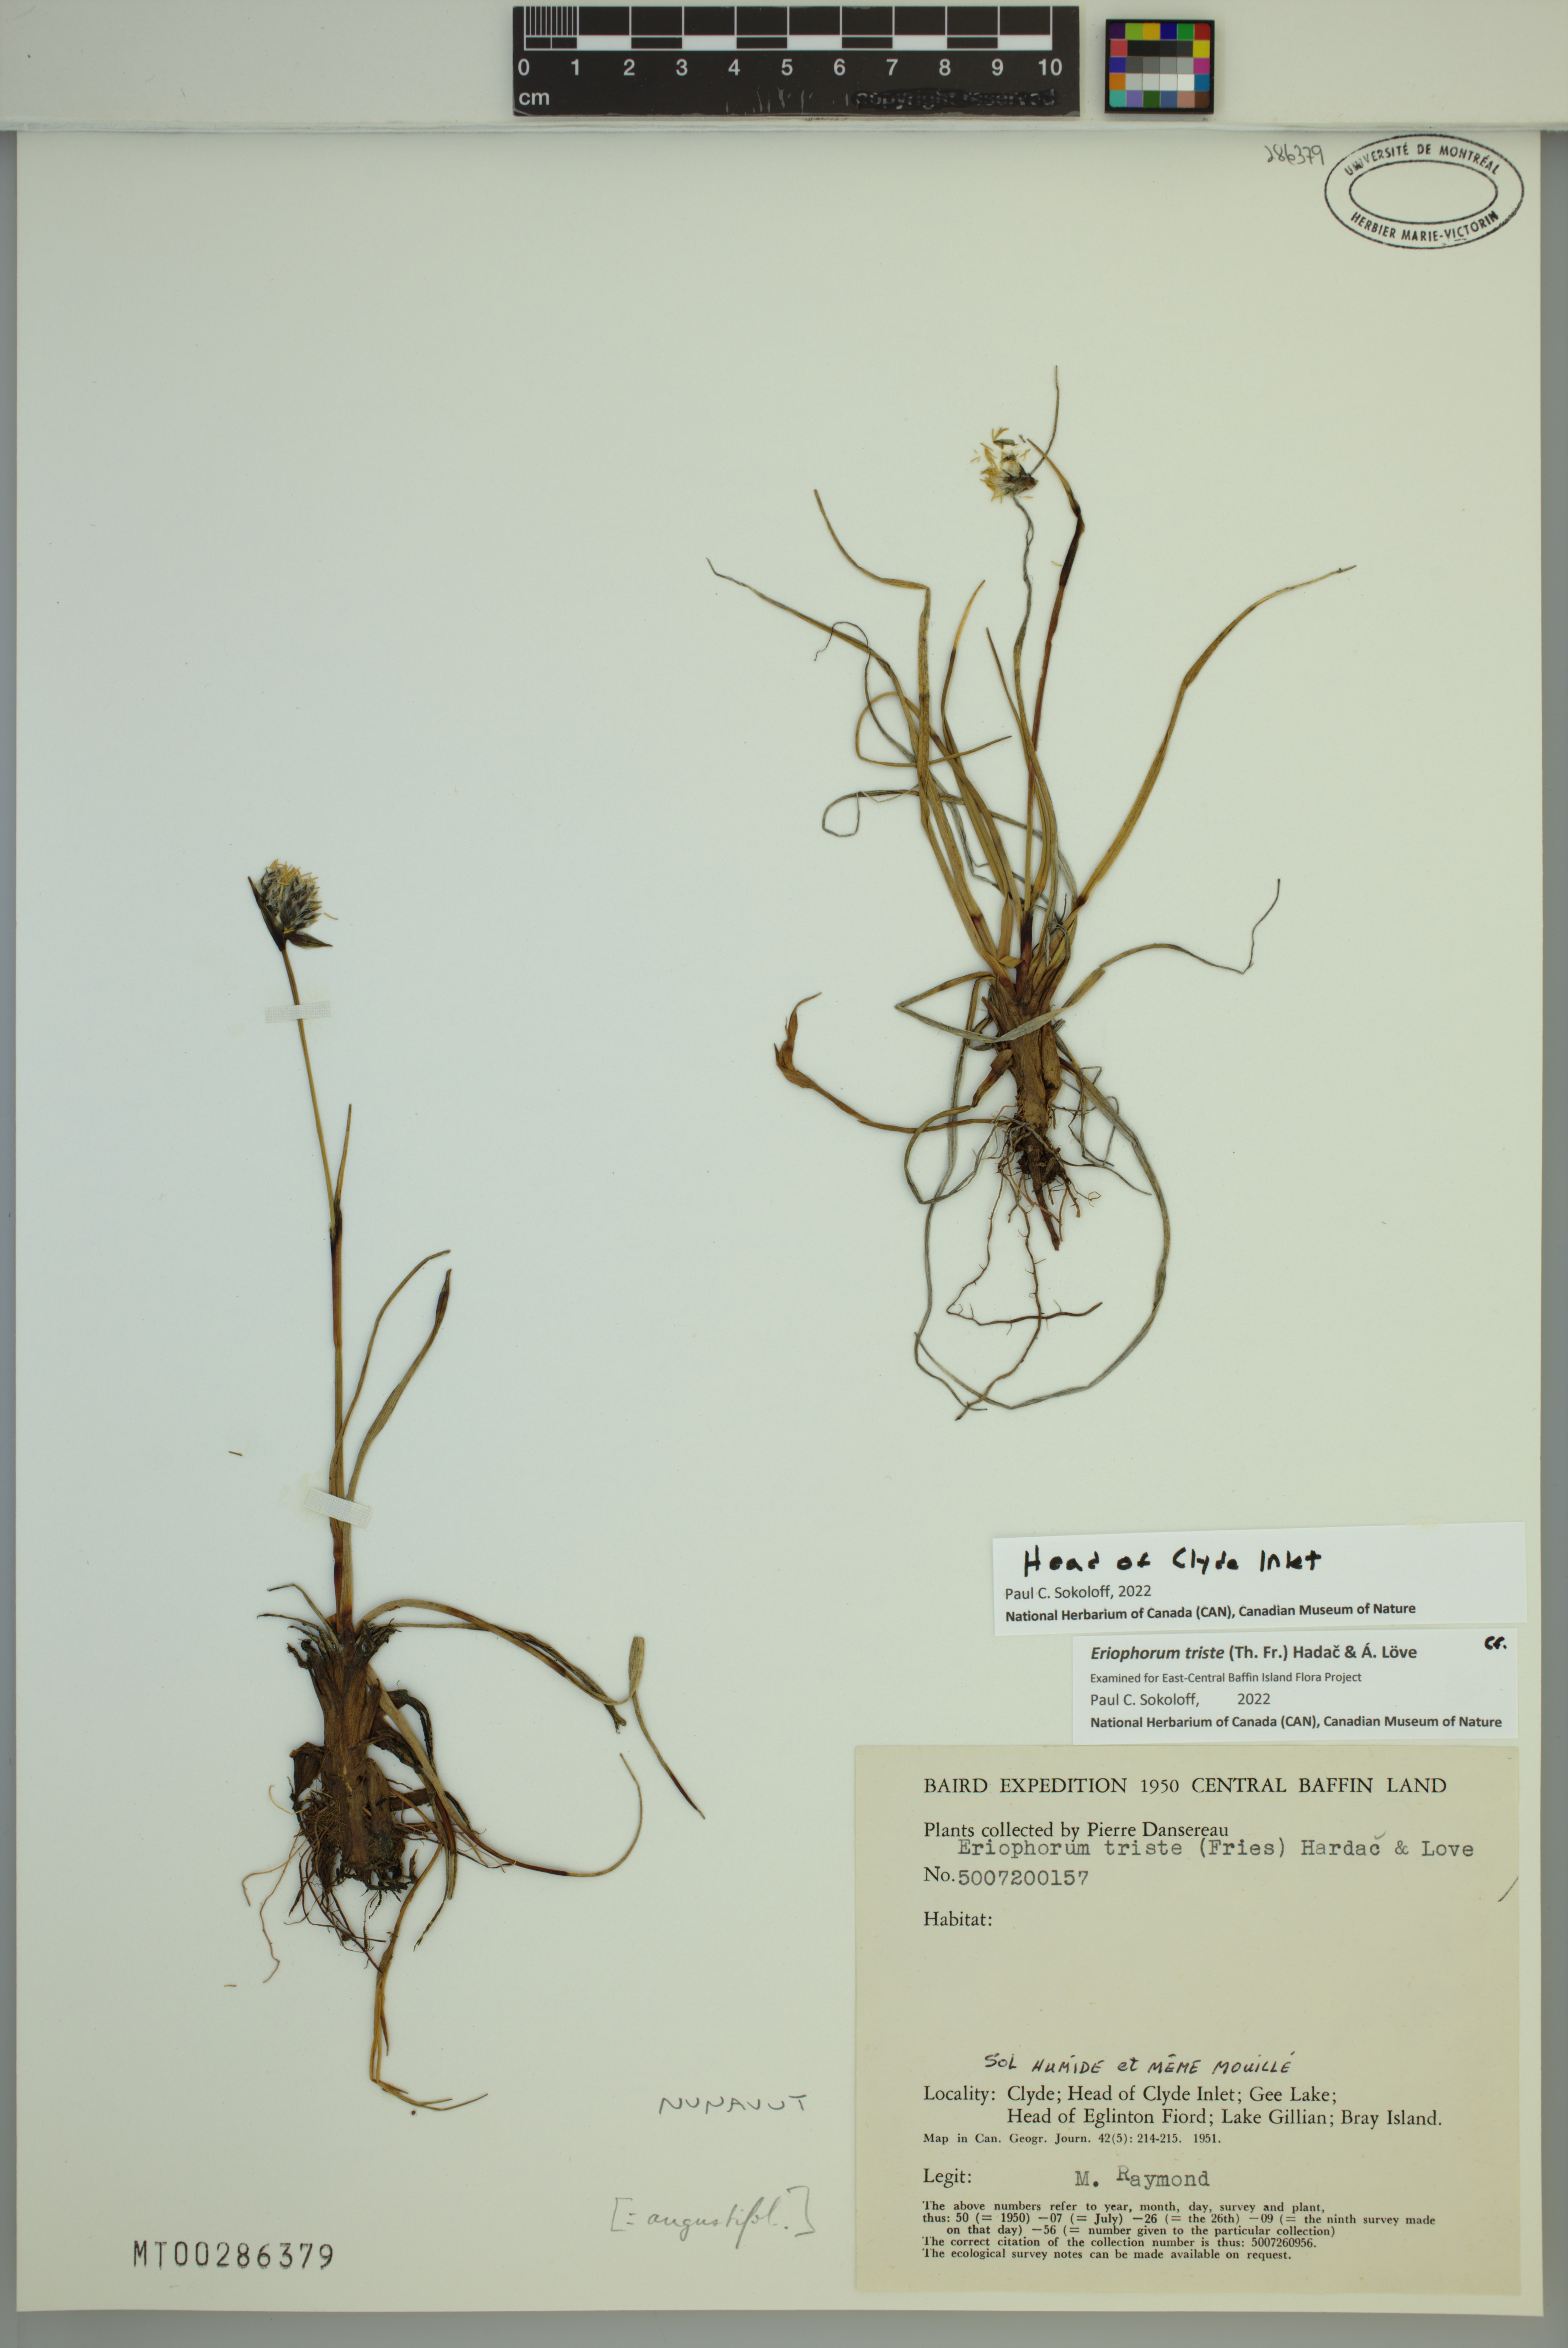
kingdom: Plantae
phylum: Tracheophyta
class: Liliopsida
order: Poales
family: Cyperaceae
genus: Eriophorum
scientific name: Eriophorum triste
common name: Tall cottongrass
